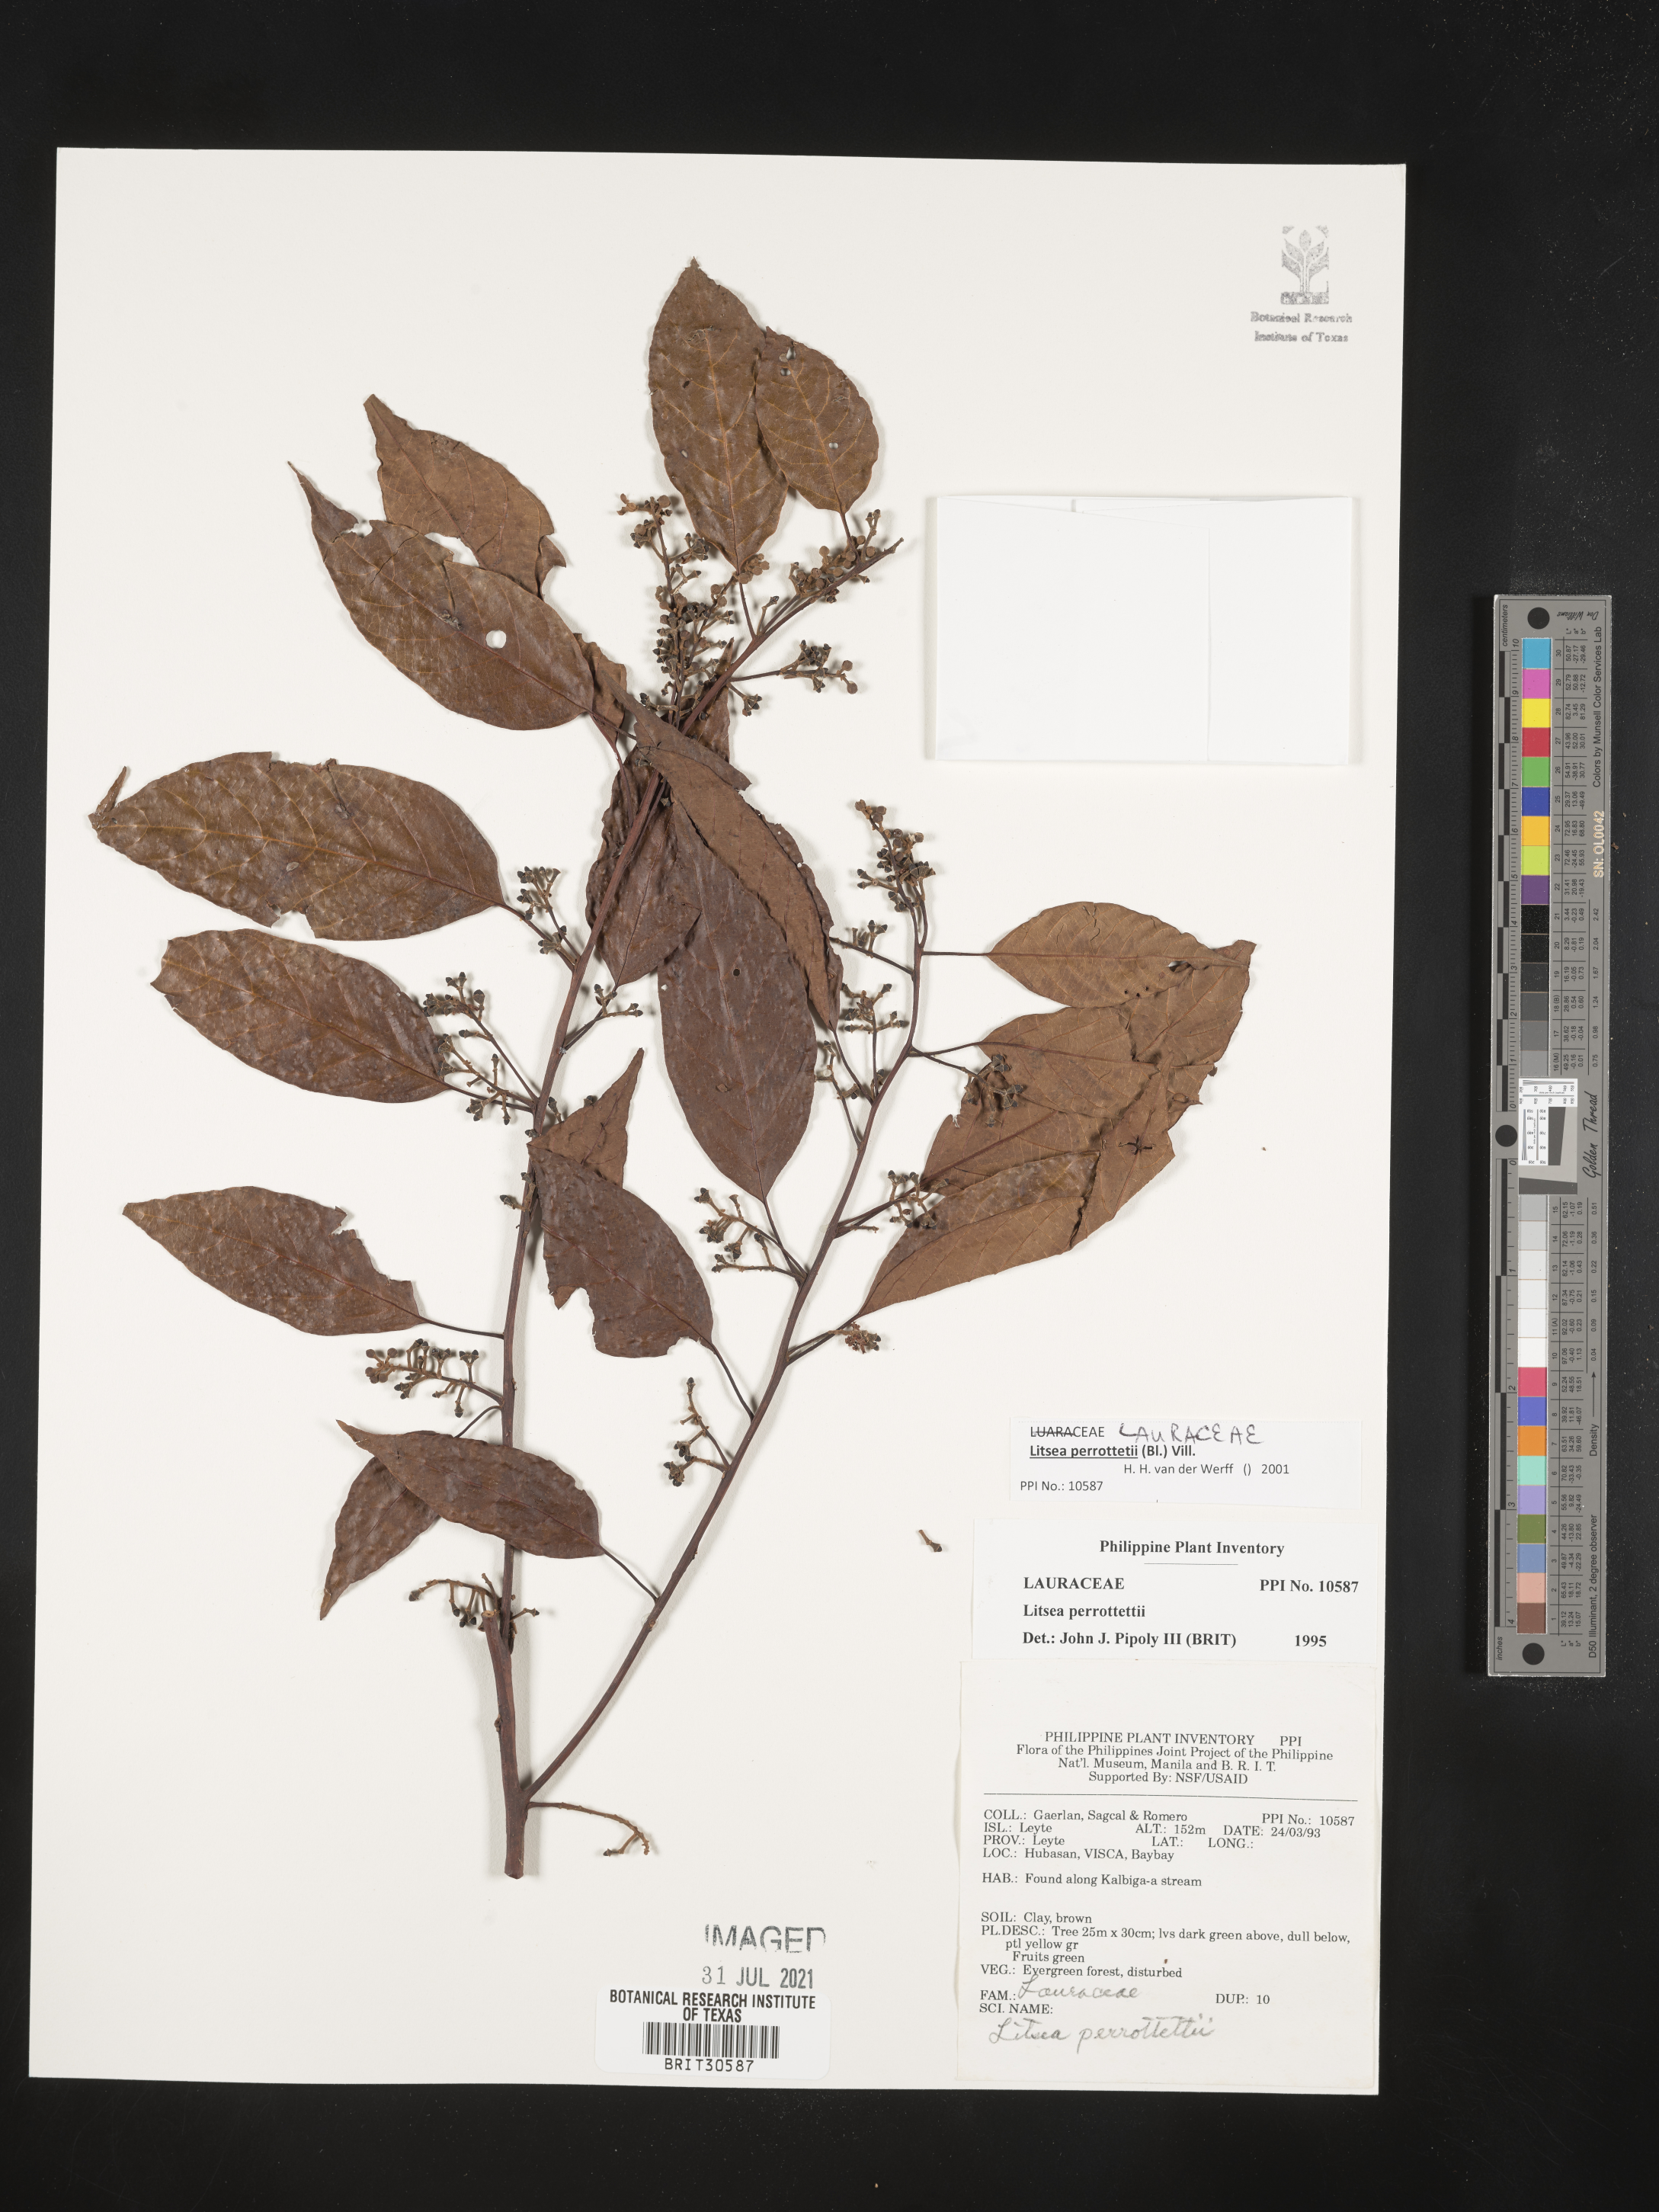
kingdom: Plantae
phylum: Tracheophyta
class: Magnoliopsida
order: Laurales
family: Lauraceae
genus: Litsea
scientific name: Litsea cordata
